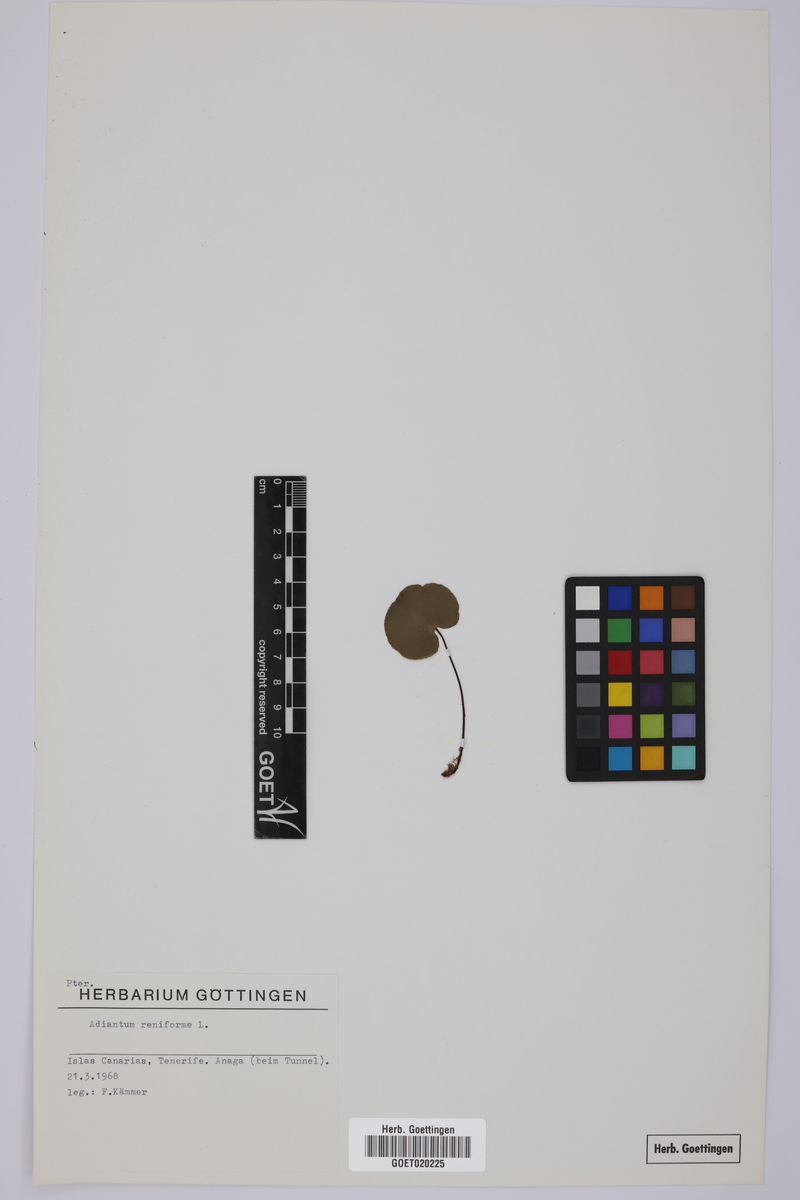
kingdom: Plantae
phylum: Tracheophyta
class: Polypodiopsida
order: Polypodiales
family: Pteridaceae
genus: Adiantum
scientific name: Adiantum reniforme
